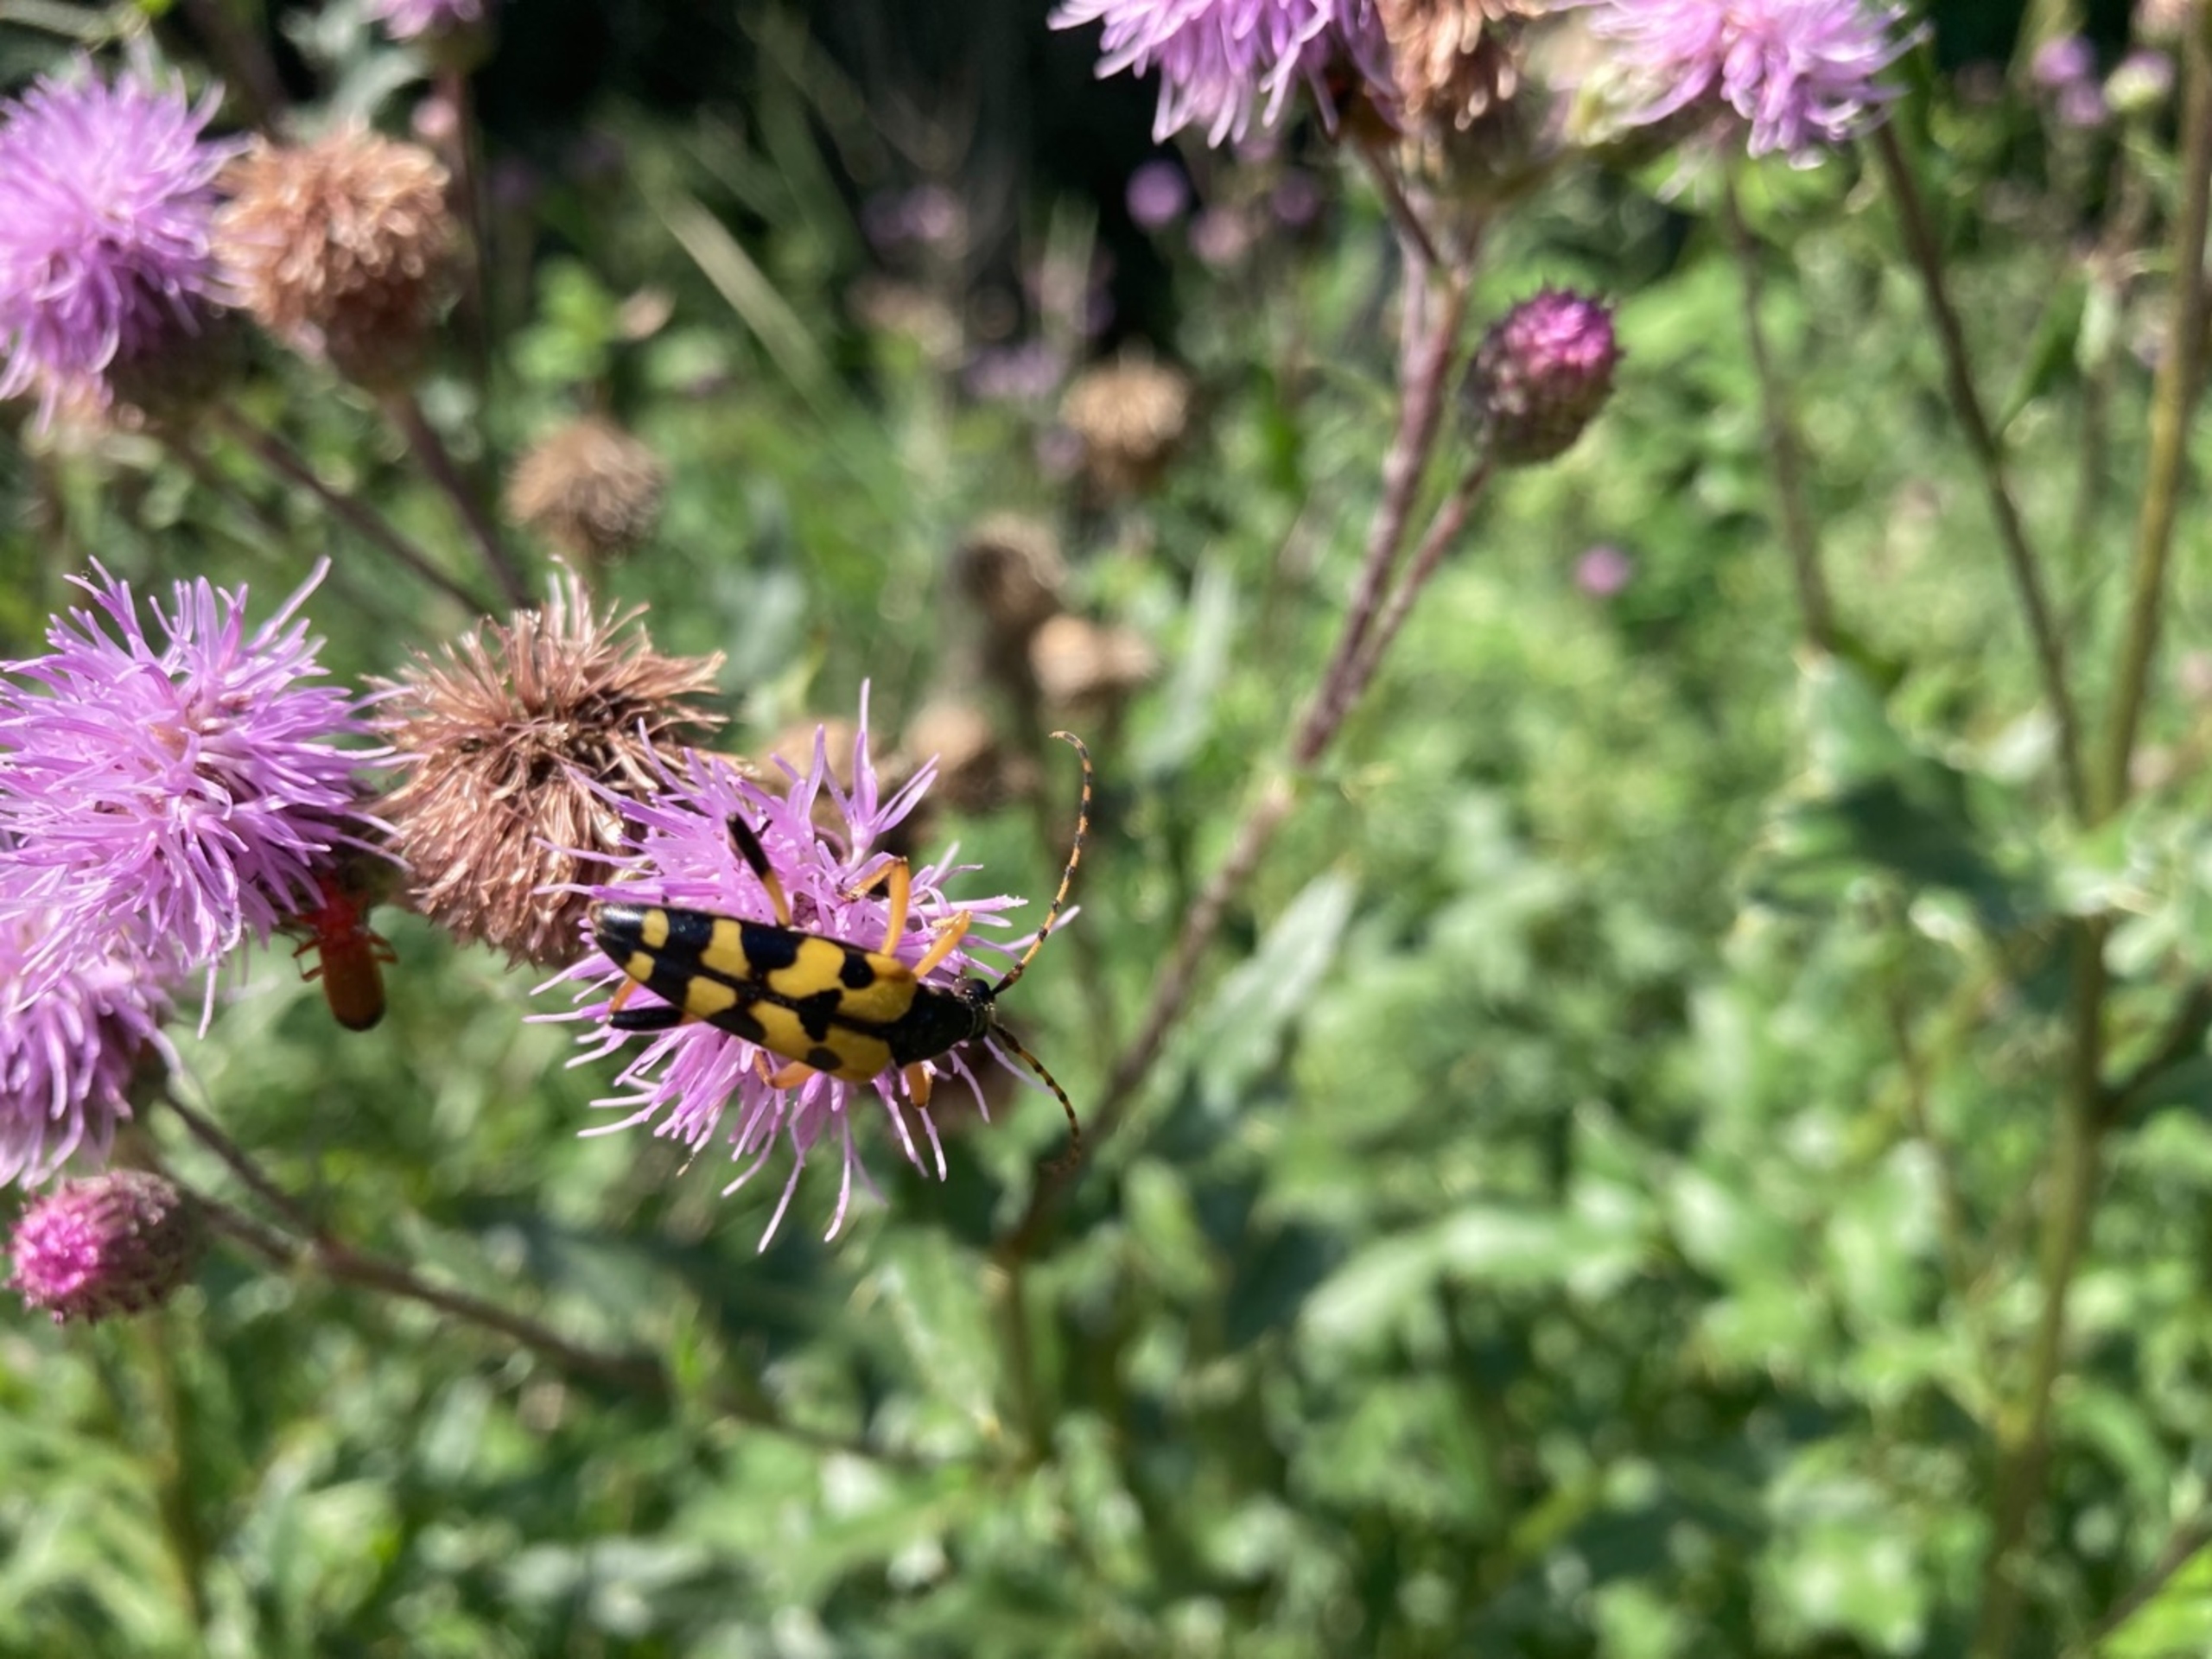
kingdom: Animalia
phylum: Arthropoda
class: Insecta
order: Coleoptera
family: Cerambycidae
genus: Rutpela
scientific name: Rutpela maculata
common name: Sydlig blomsterbuk
